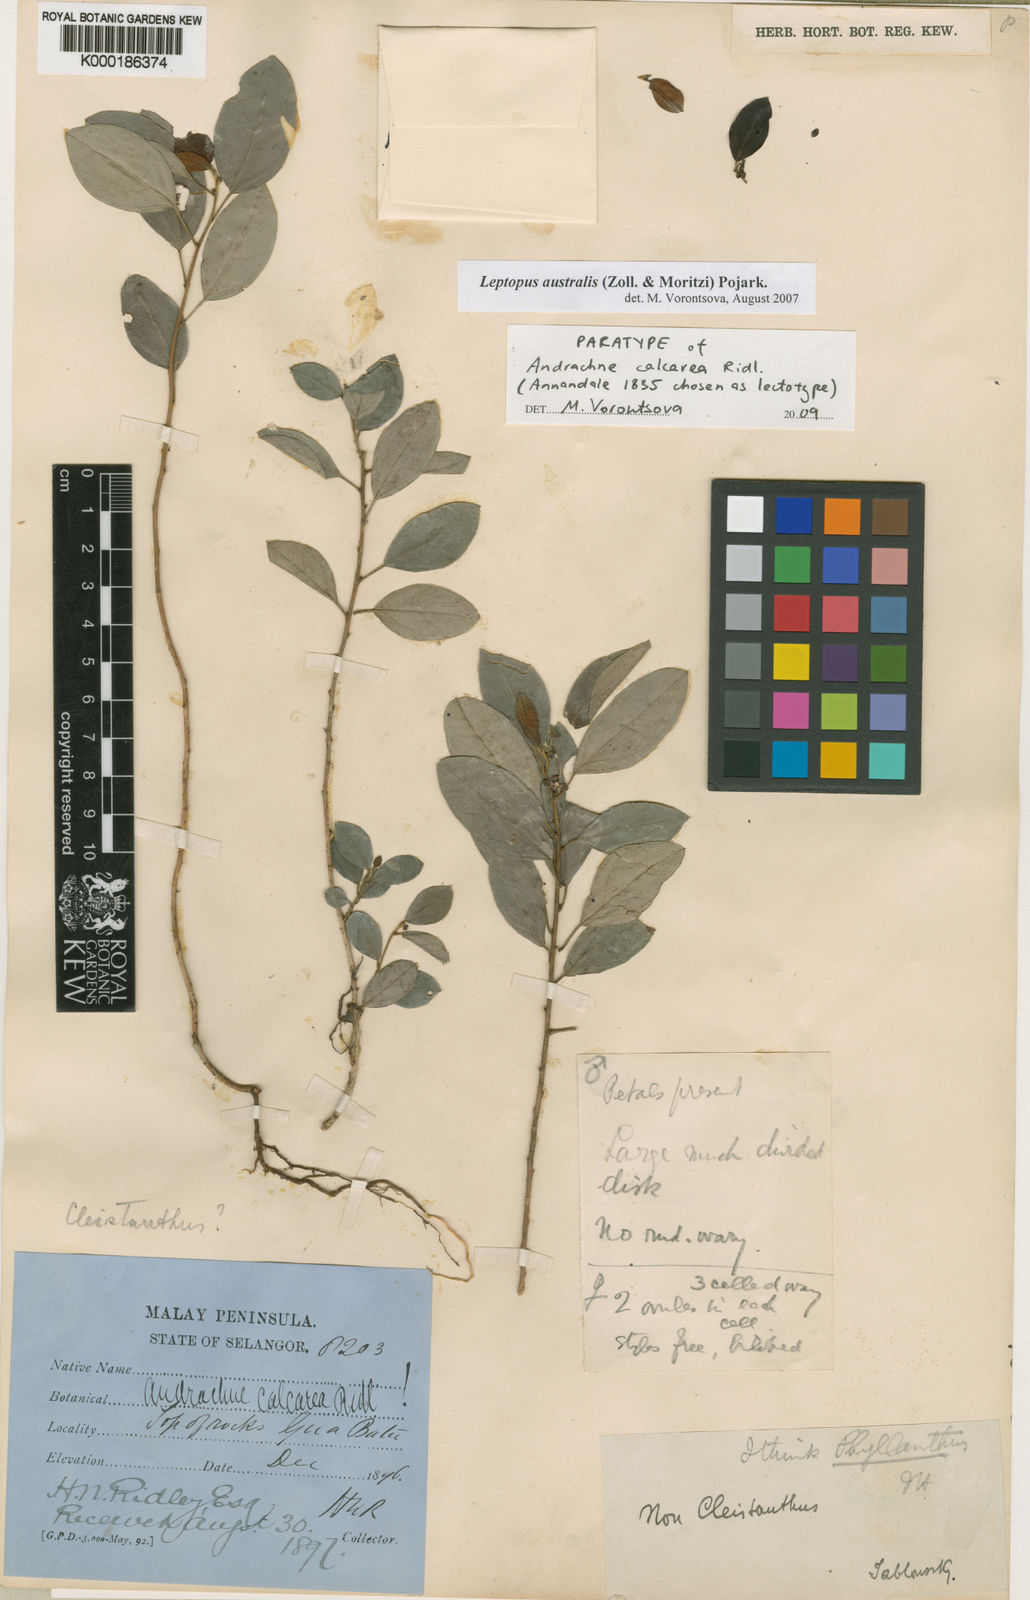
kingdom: Plantae
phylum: Tracheophyta
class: Magnoliopsida
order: Malpighiales
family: Phyllanthaceae
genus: Leptopus
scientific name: Leptopus australis
